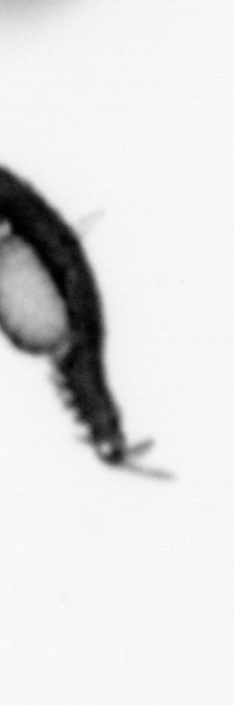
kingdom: Animalia
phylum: Annelida
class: Polychaeta
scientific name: Polychaeta
